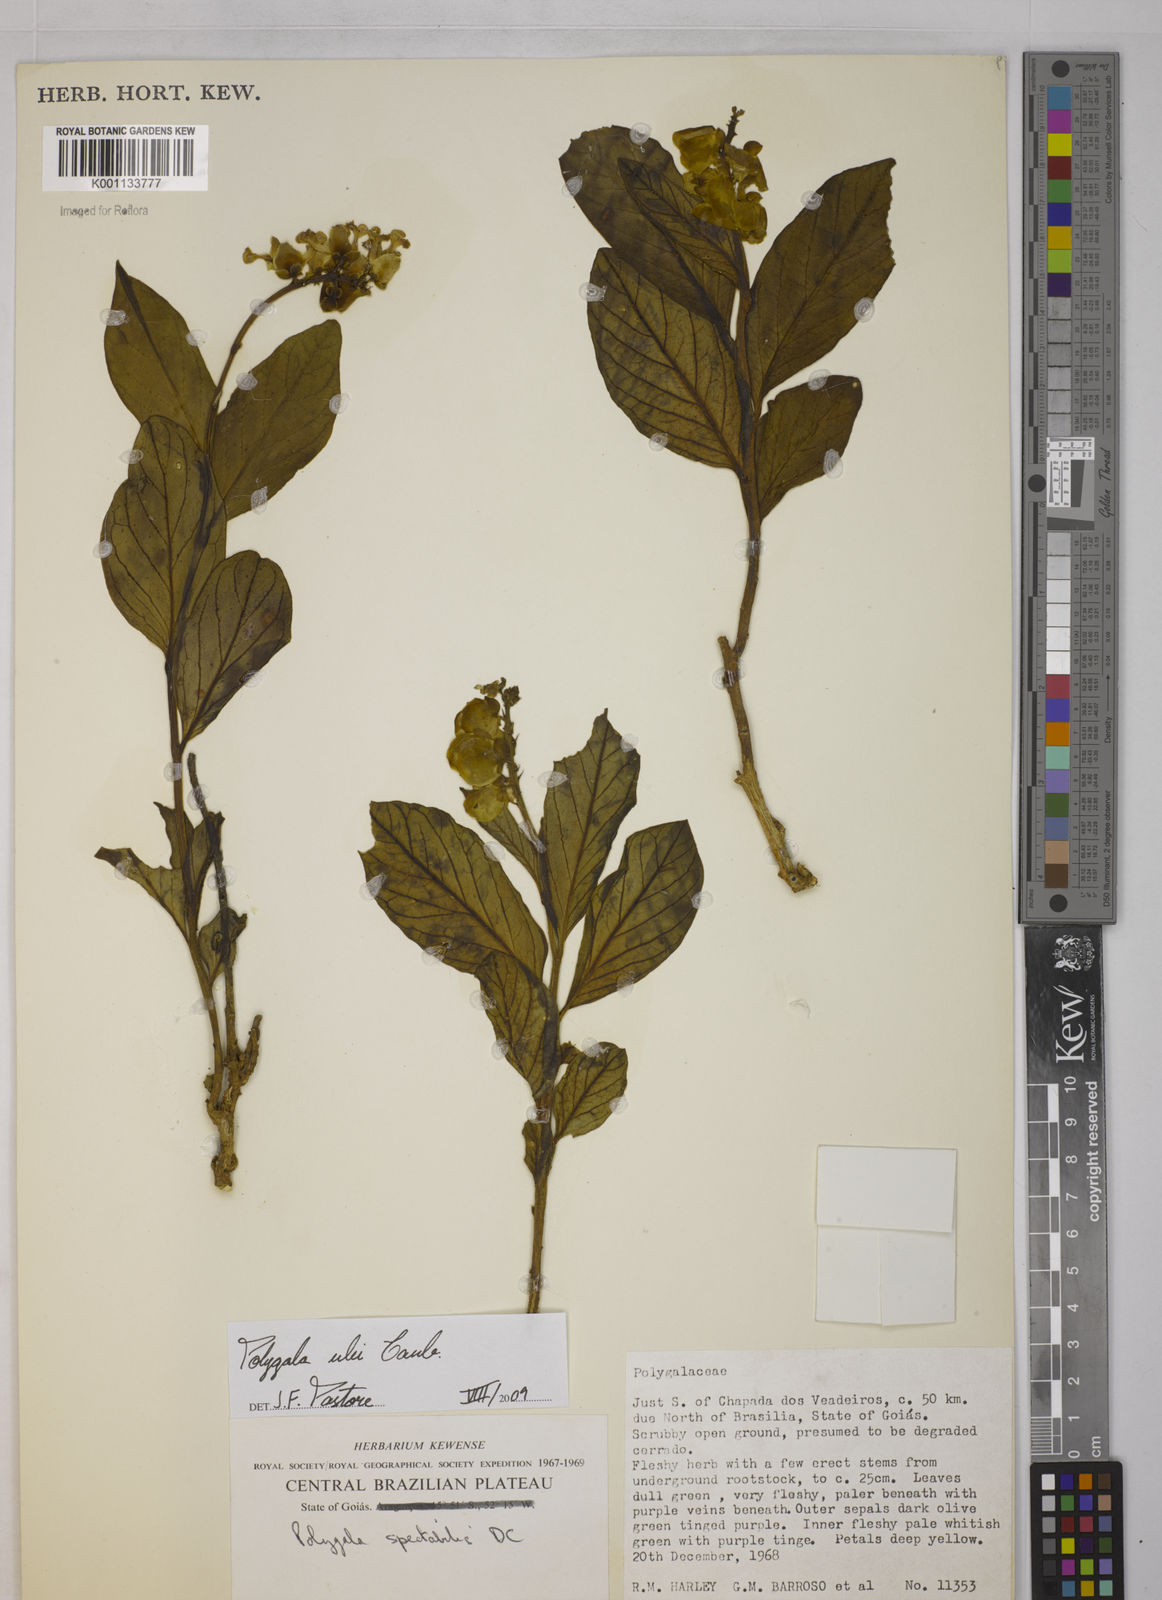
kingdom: Plantae
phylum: Tracheophyta
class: Magnoliopsida
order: Fabales
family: Polygalaceae
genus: Caamembeca
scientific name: Caamembeca ulei
